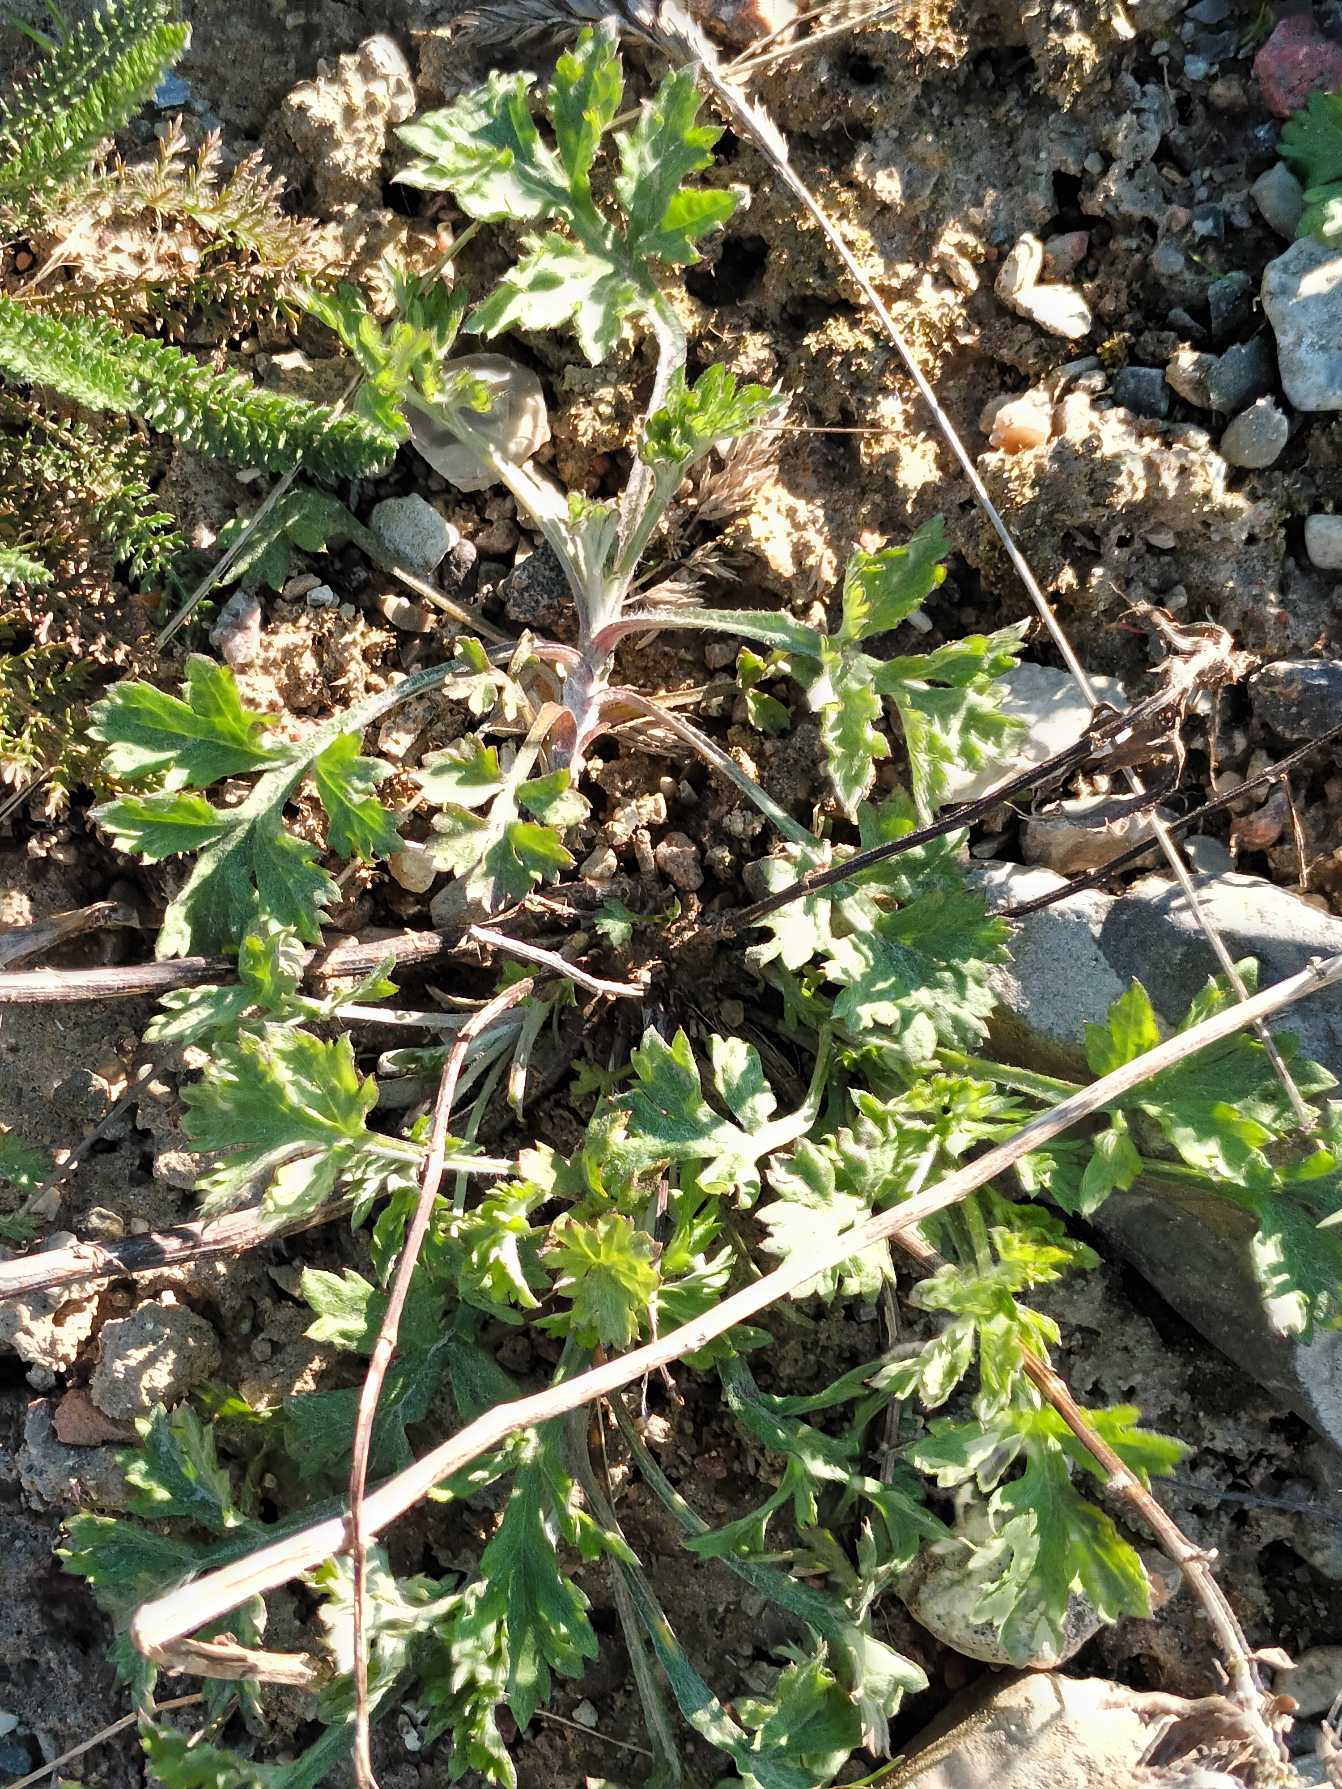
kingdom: Plantae
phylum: Tracheophyta
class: Magnoliopsida
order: Asterales
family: Asteraceae
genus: Artemisia
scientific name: Artemisia vulgaris
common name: Grå-bynke
